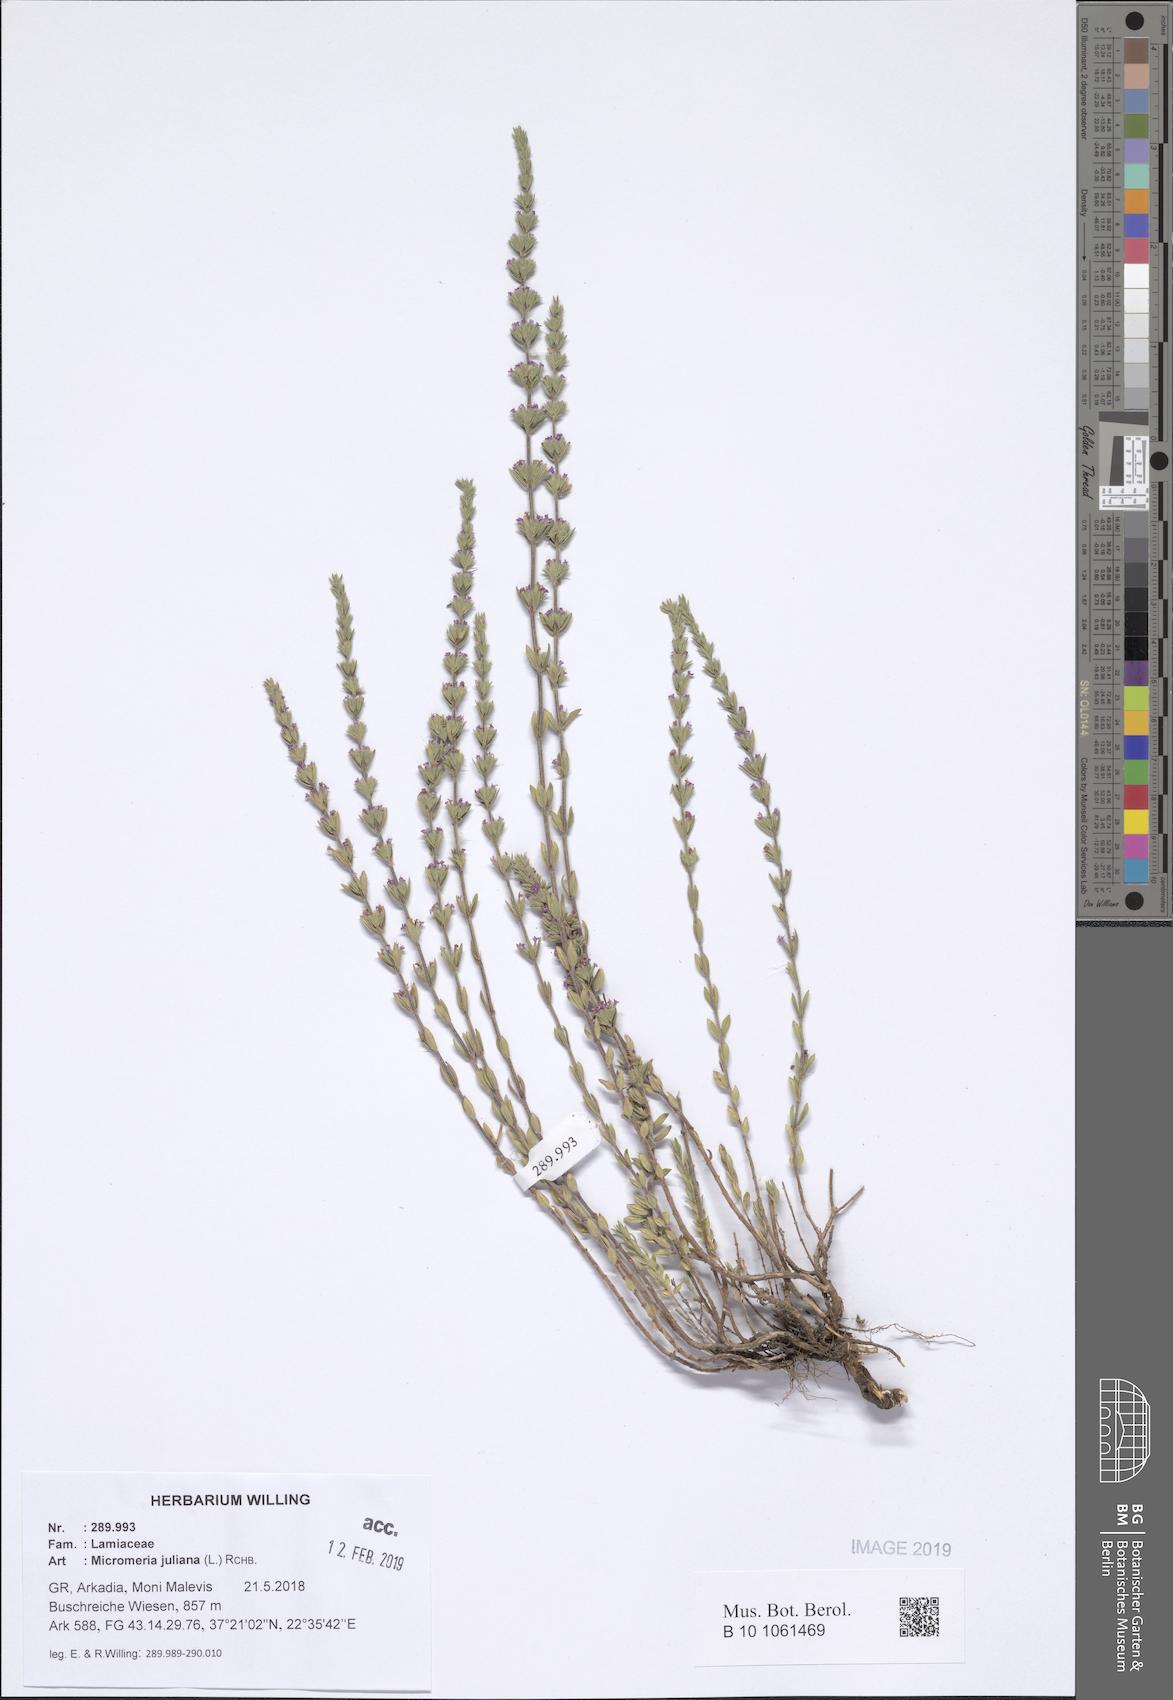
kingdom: Plantae
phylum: Tracheophyta
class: Magnoliopsida
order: Lamiales
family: Lamiaceae
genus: Micromeria
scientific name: Micromeria juliana
